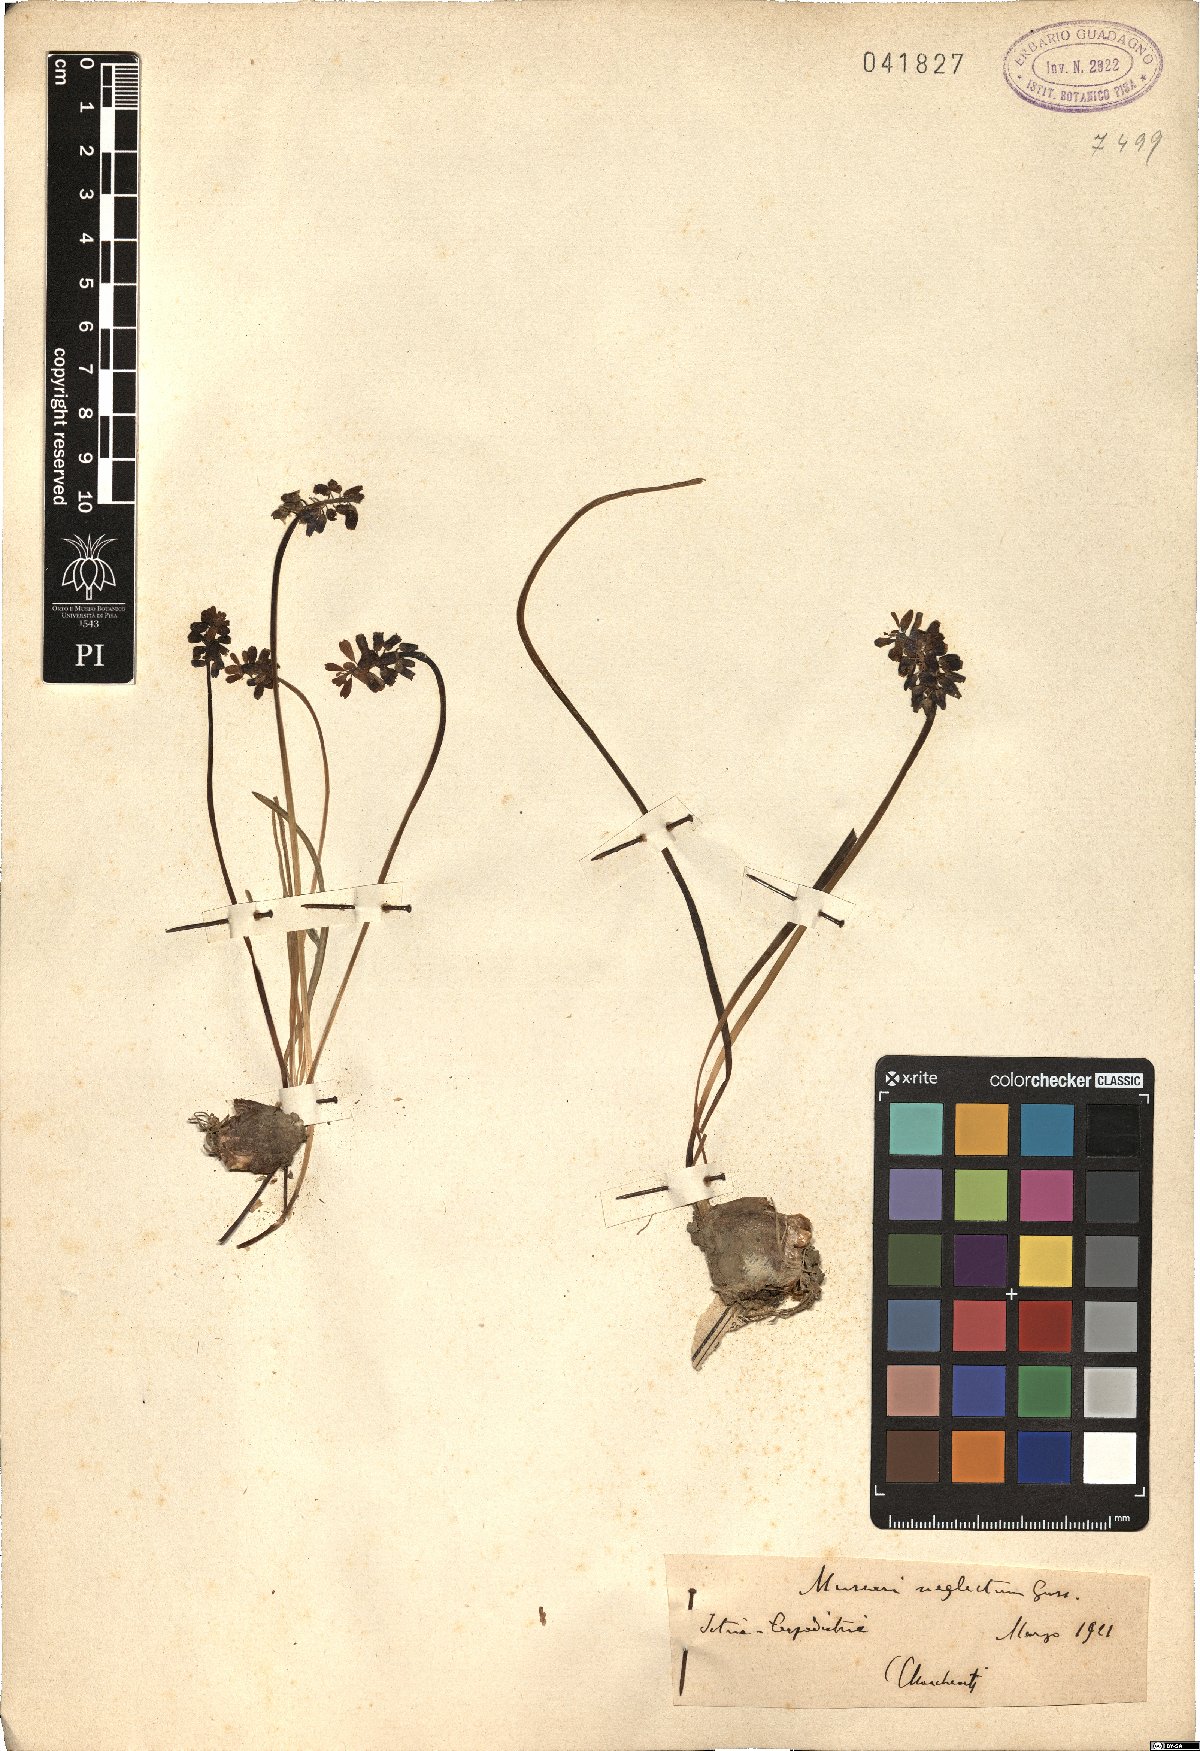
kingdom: Plantae
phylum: Tracheophyta
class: Liliopsida
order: Asparagales
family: Asparagaceae
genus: Muscari
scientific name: Muscari neglectum
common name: Grape-hyacinth
